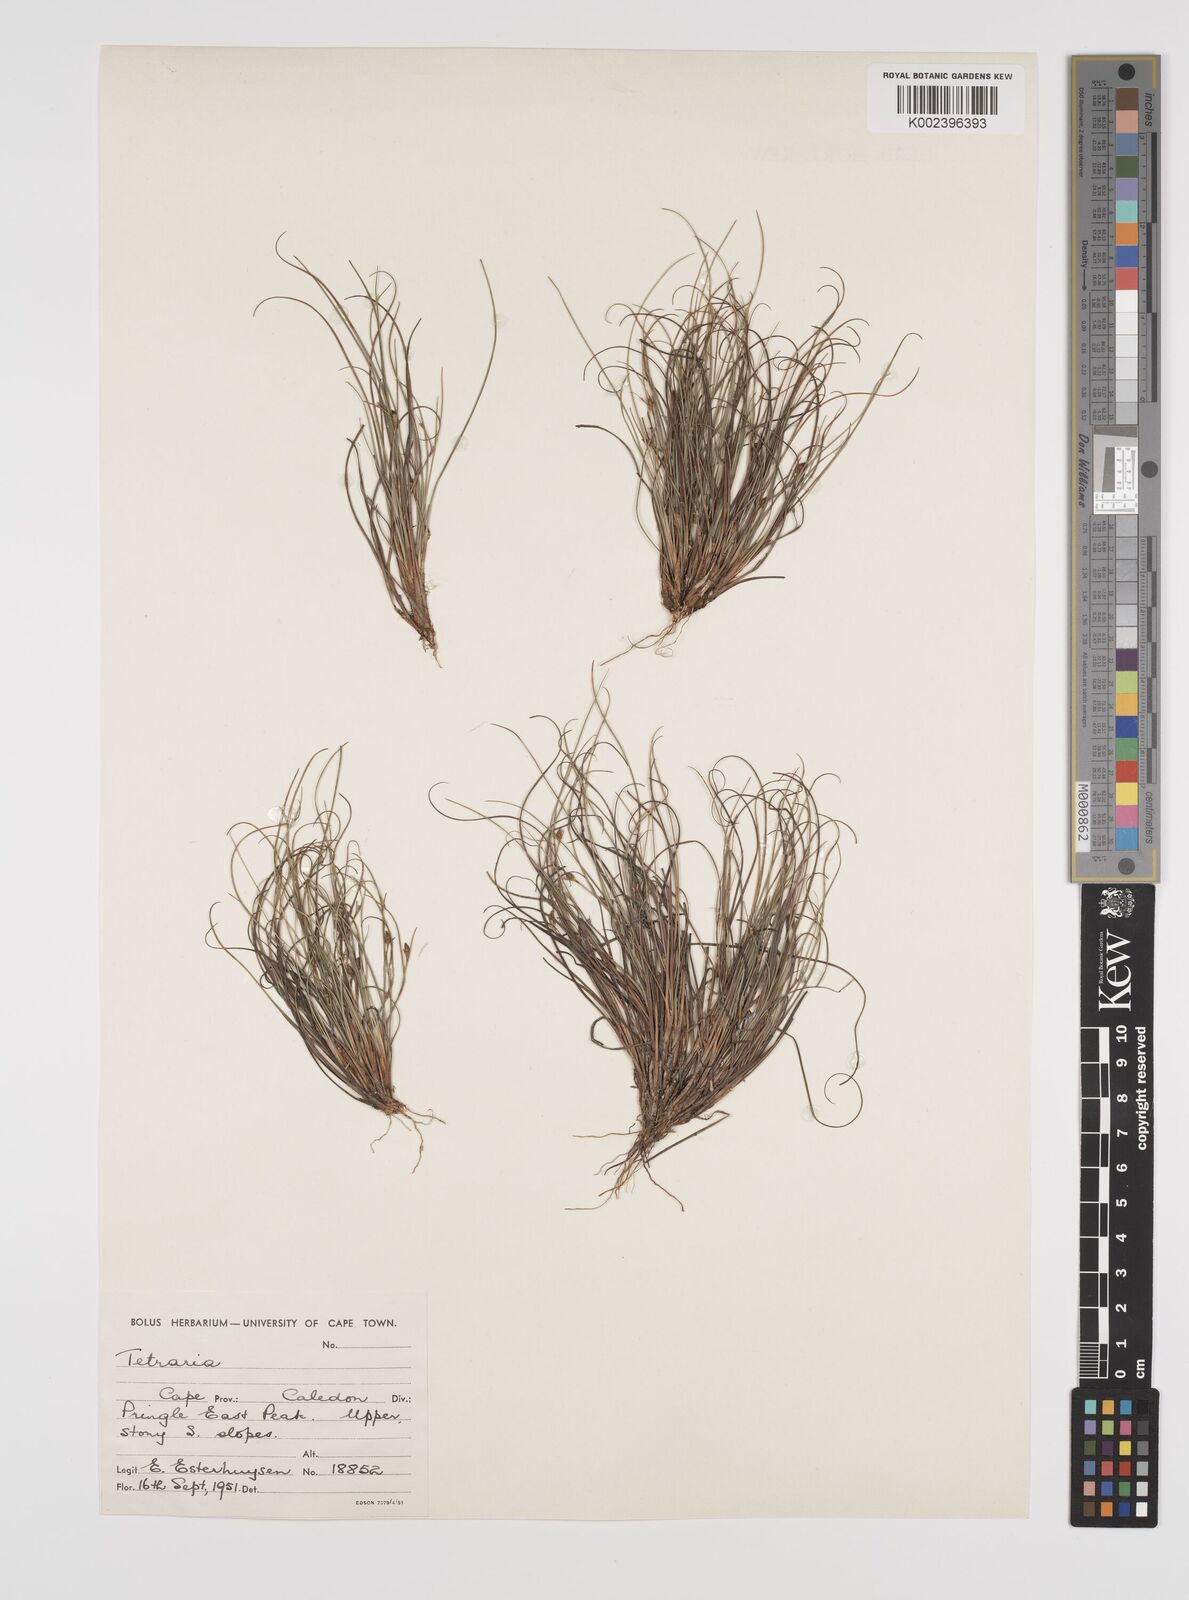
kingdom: Plantae
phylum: Tracheophyta
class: Liliopsida
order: Poales
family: Cyperaceae
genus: Tetraria
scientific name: Tetraria
